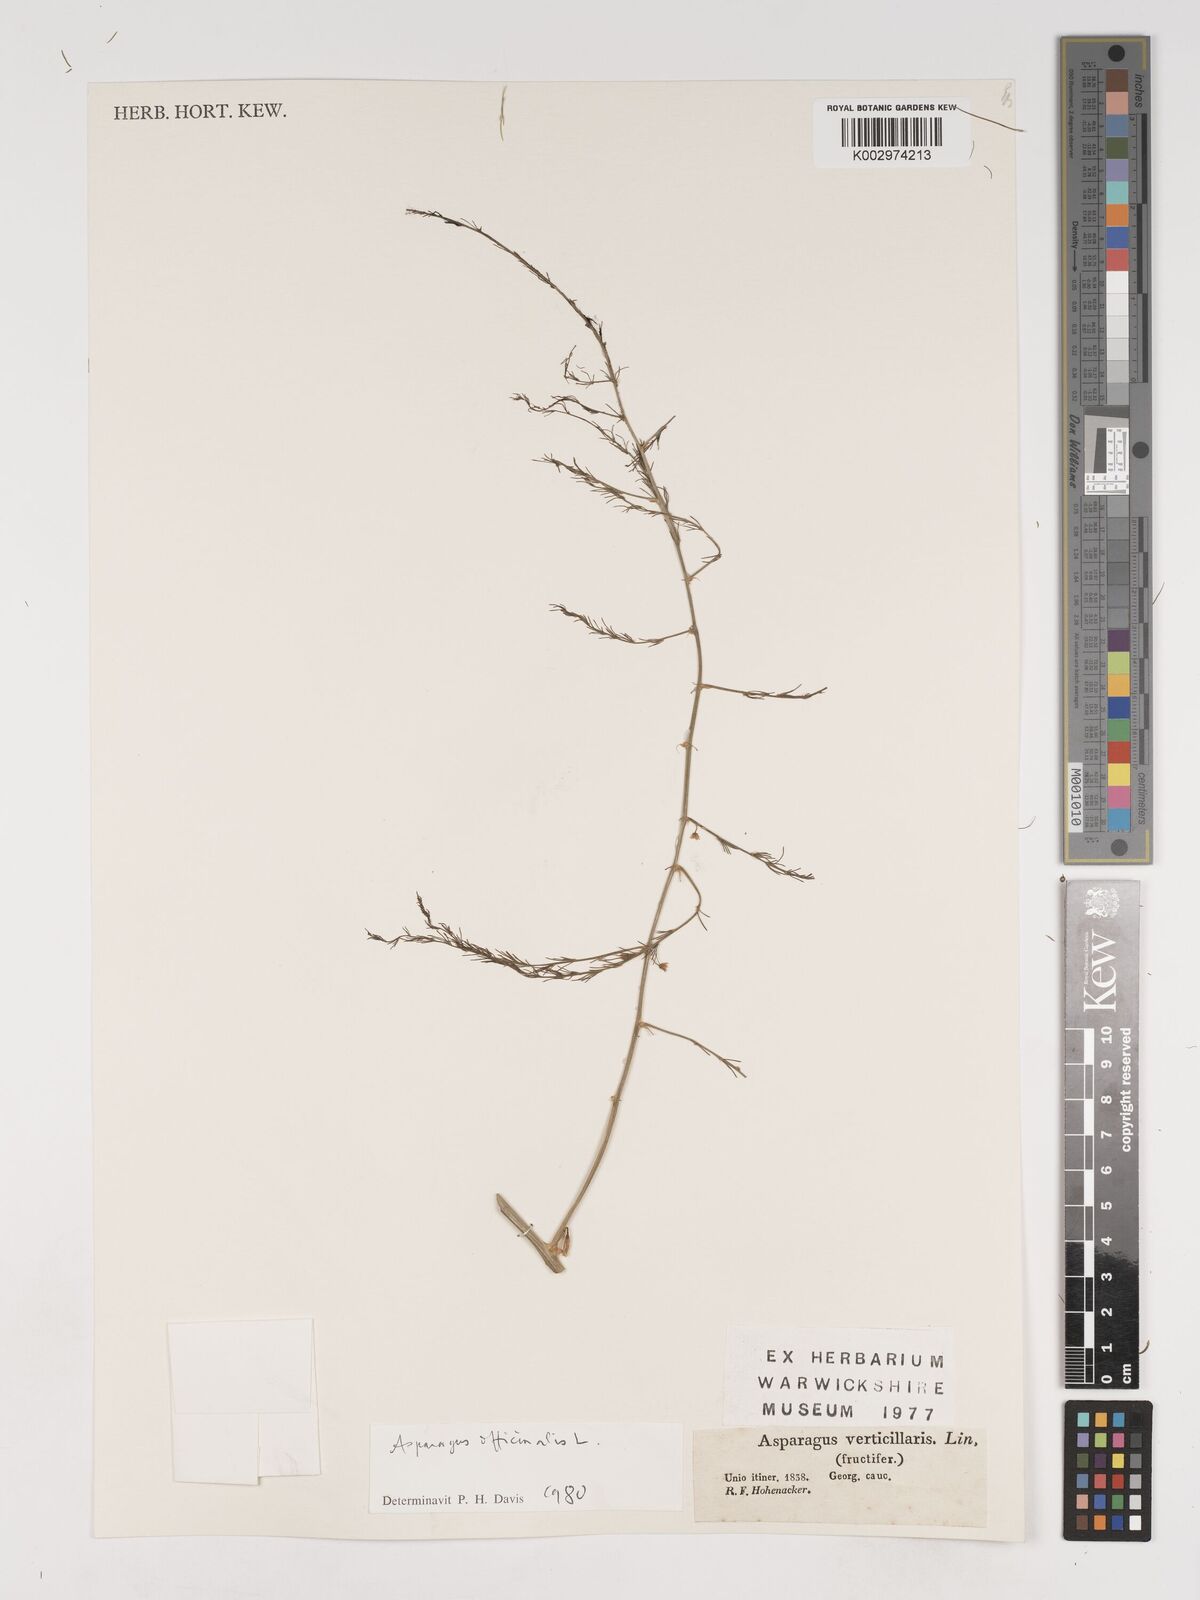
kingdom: Plantae
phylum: Tracheophyta
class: Liliopsida
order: Asparagales
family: Asparagaceae
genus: Asparagus
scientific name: Asparagus officinalis
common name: Garden asparagus
